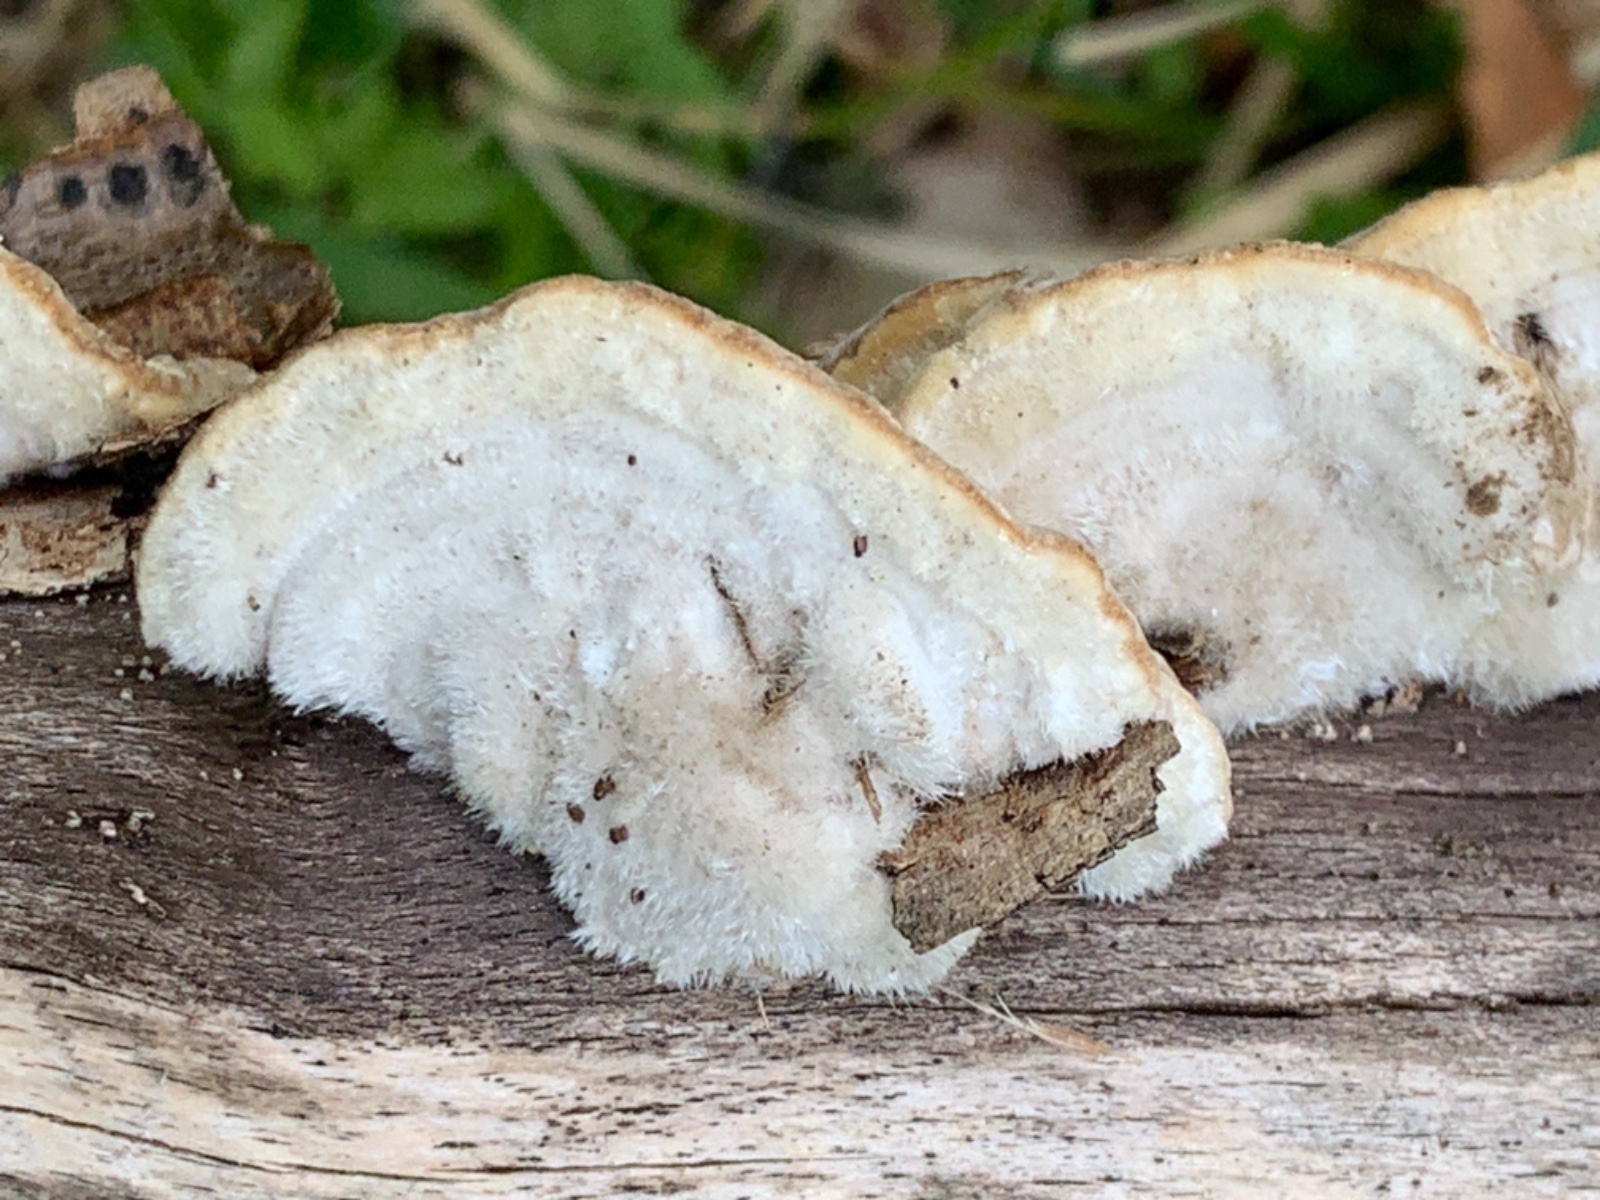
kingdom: Fungi
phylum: Basidiomycota
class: Agaricomycetes
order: Polyporales
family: Polyporaceae
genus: Trametes
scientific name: Trametes hirsuta
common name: håret læderporesvamp
